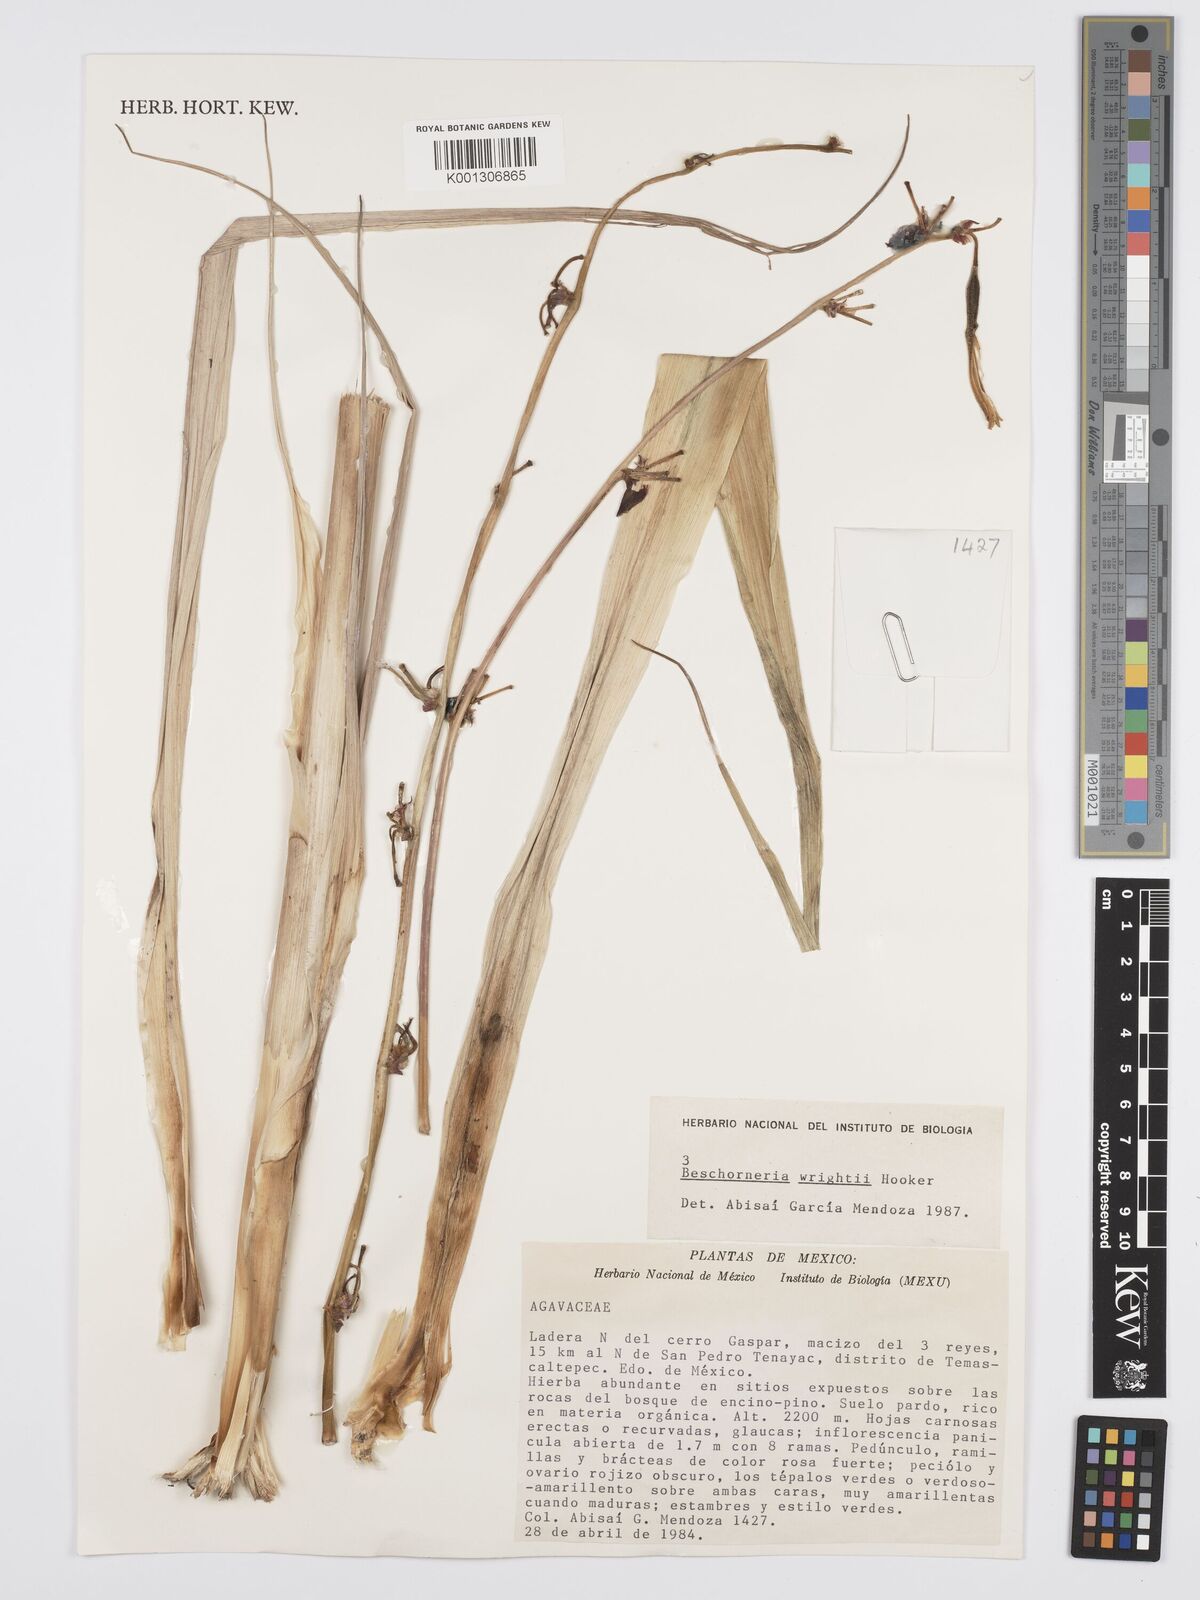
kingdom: Plantae
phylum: Tracheophyta
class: Liliopsida
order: Asparagales
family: Asparagaceae
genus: Beschorneria
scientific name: Beschorneria wrightii
